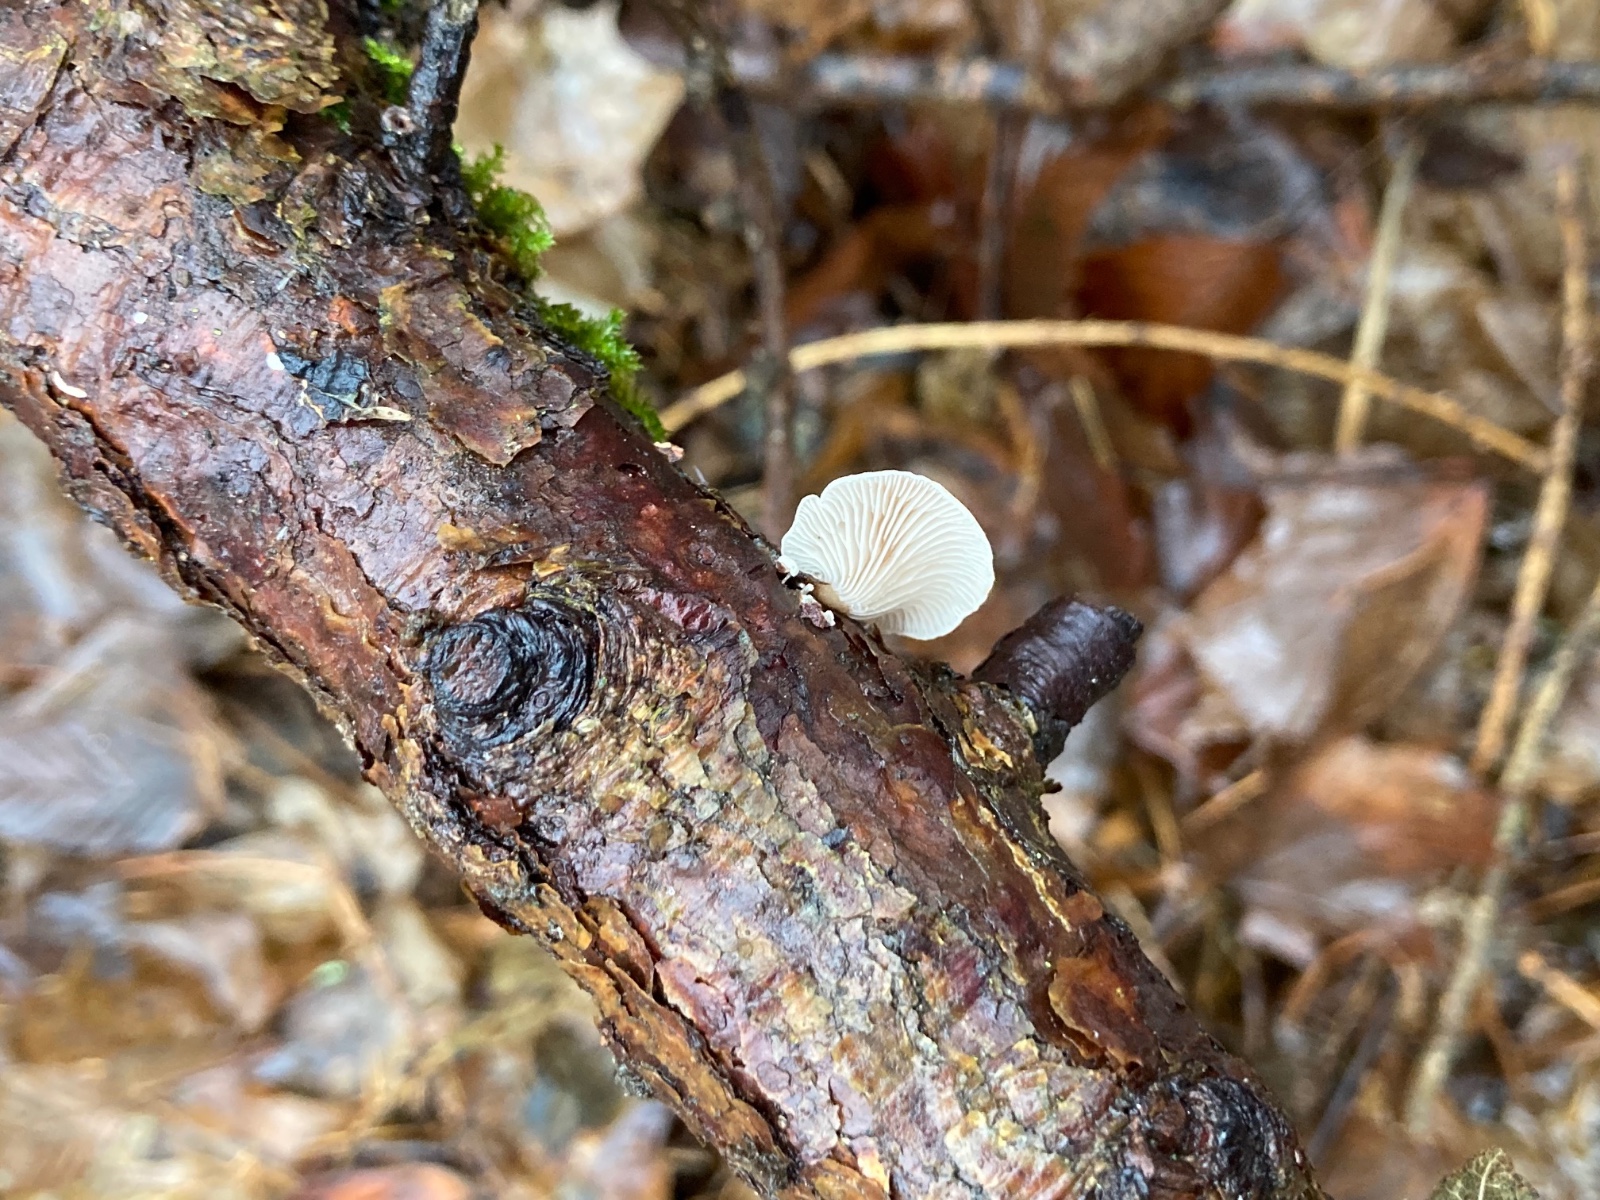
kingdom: Fungi
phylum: Basidiomycota
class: Agaricomycetes
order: Agaricales
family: Mycenaceae
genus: Panellus
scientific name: Panellus mitis
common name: mild epaulethat
